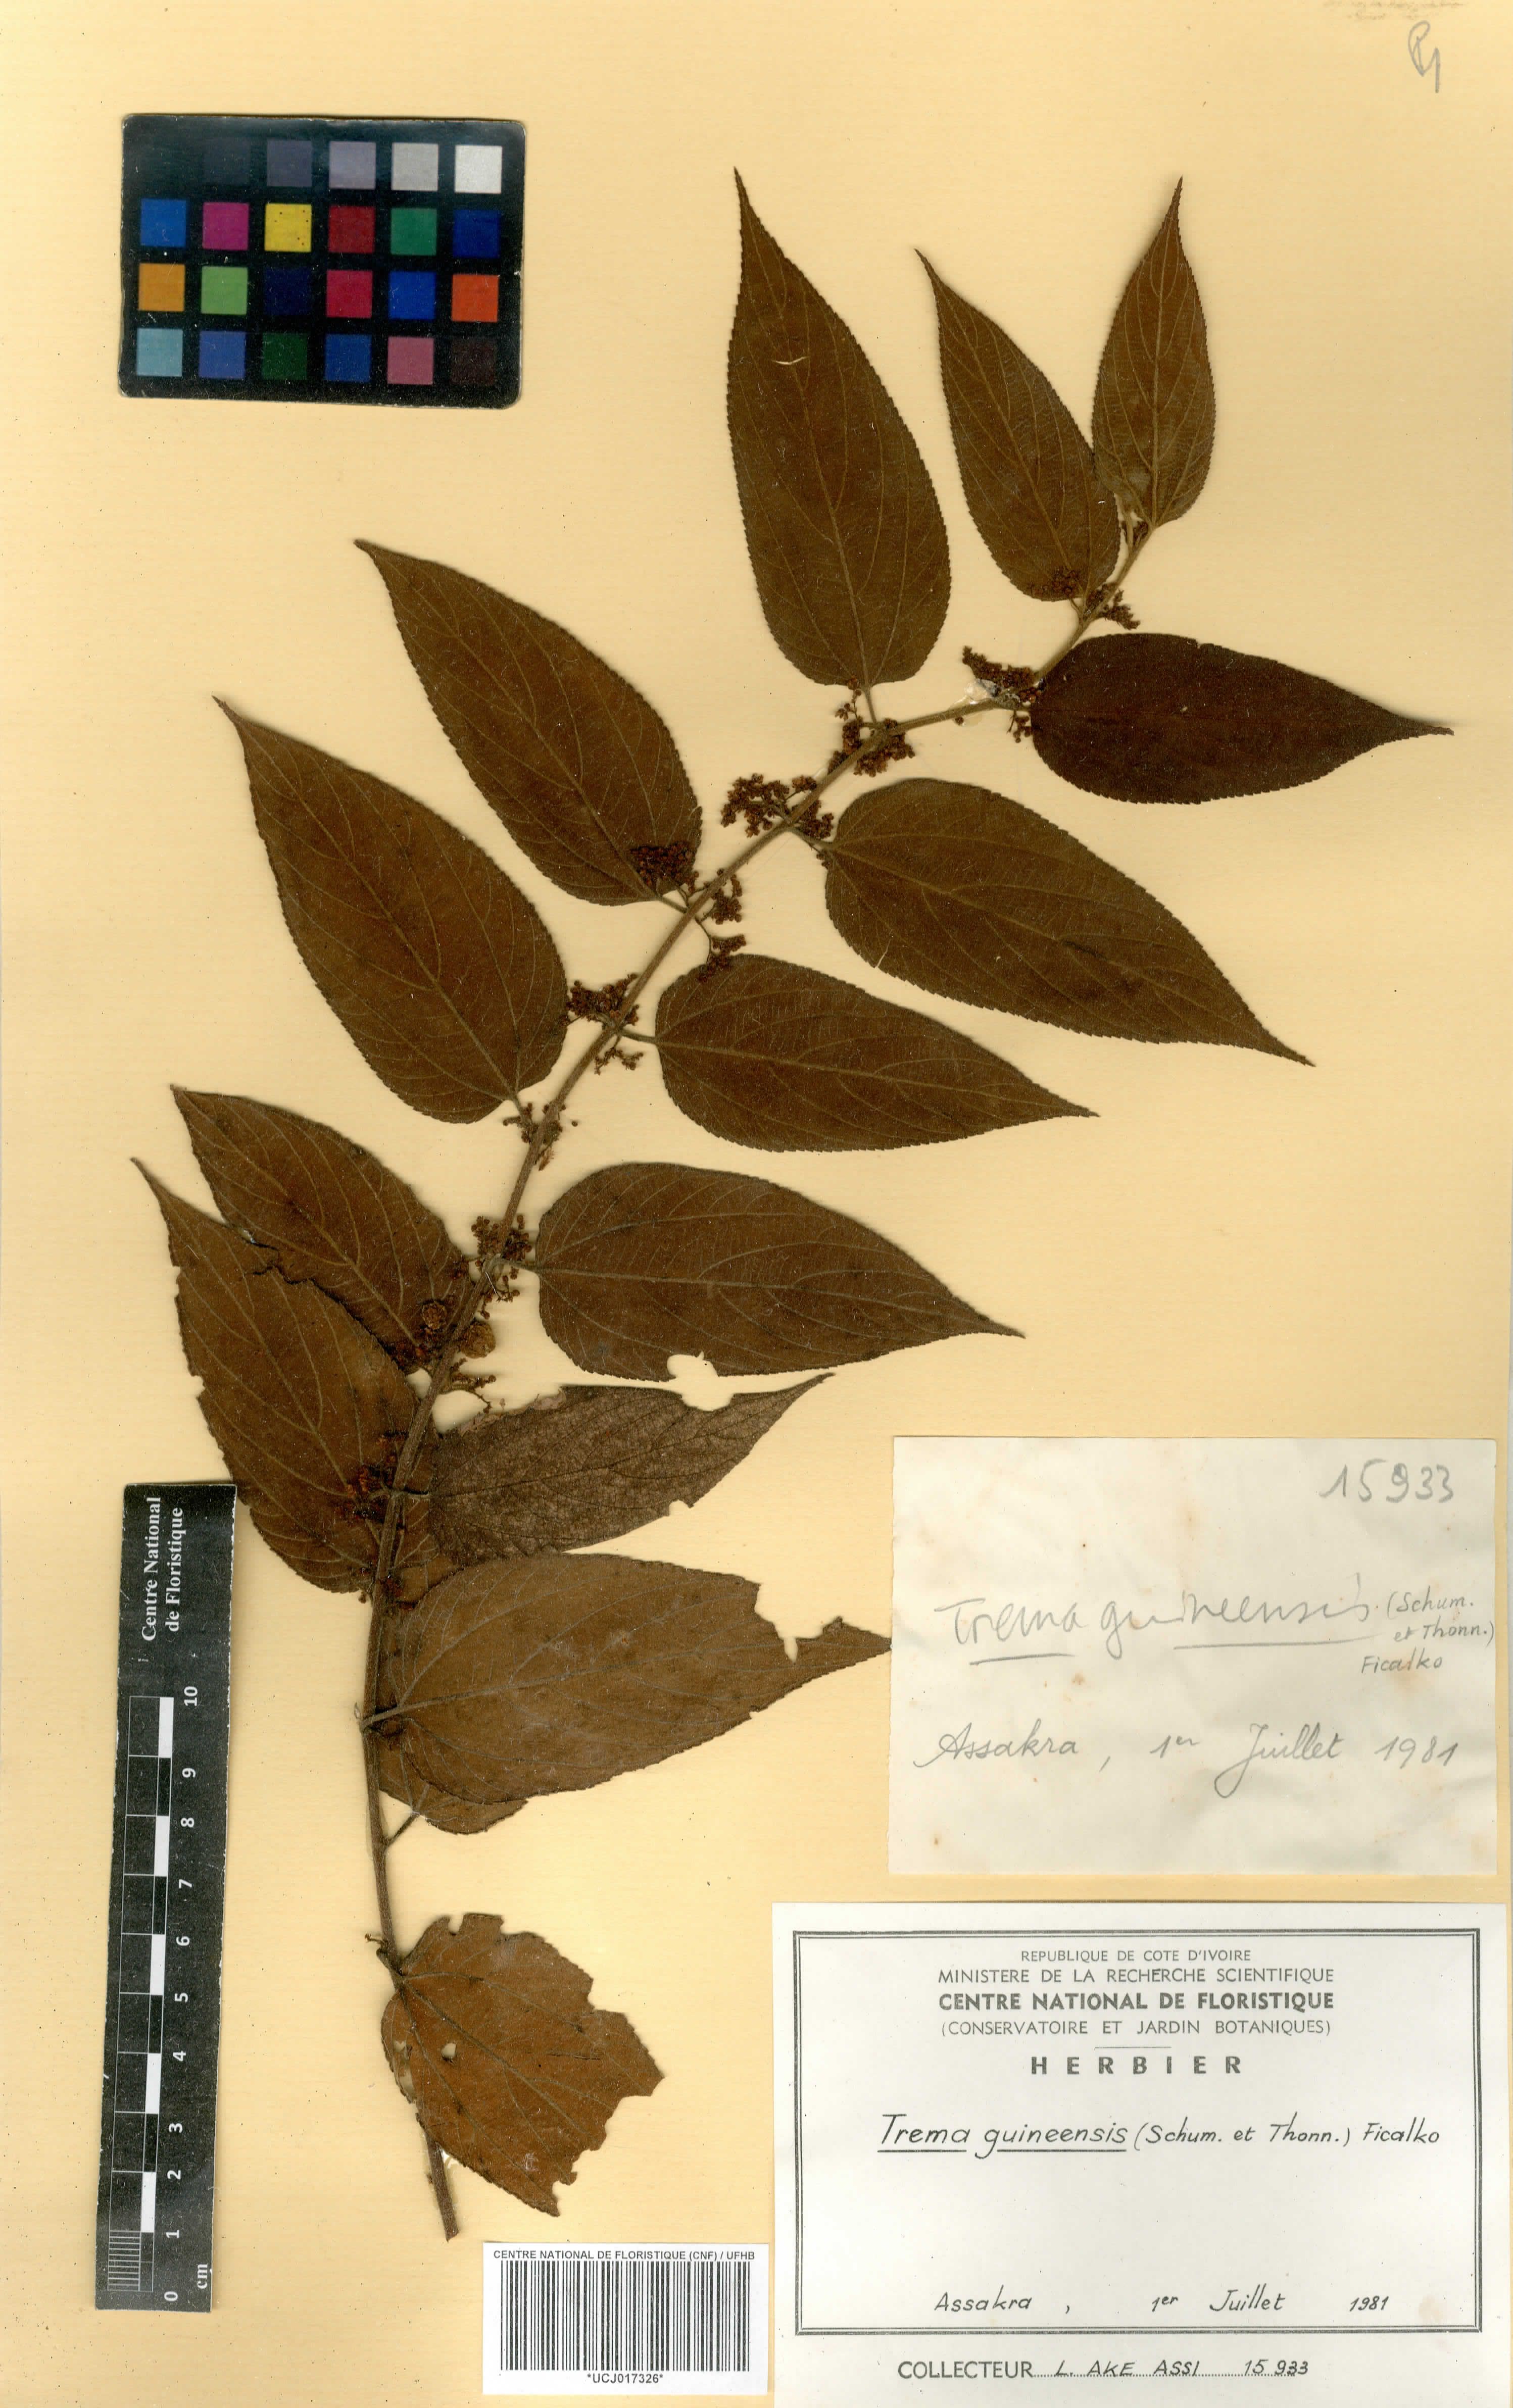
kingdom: Plantae
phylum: Tracheophyta
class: Magnoliopsida
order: Rosales
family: Cannabaceae
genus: Trema
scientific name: Trema orientale
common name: Indian charcoal tree
